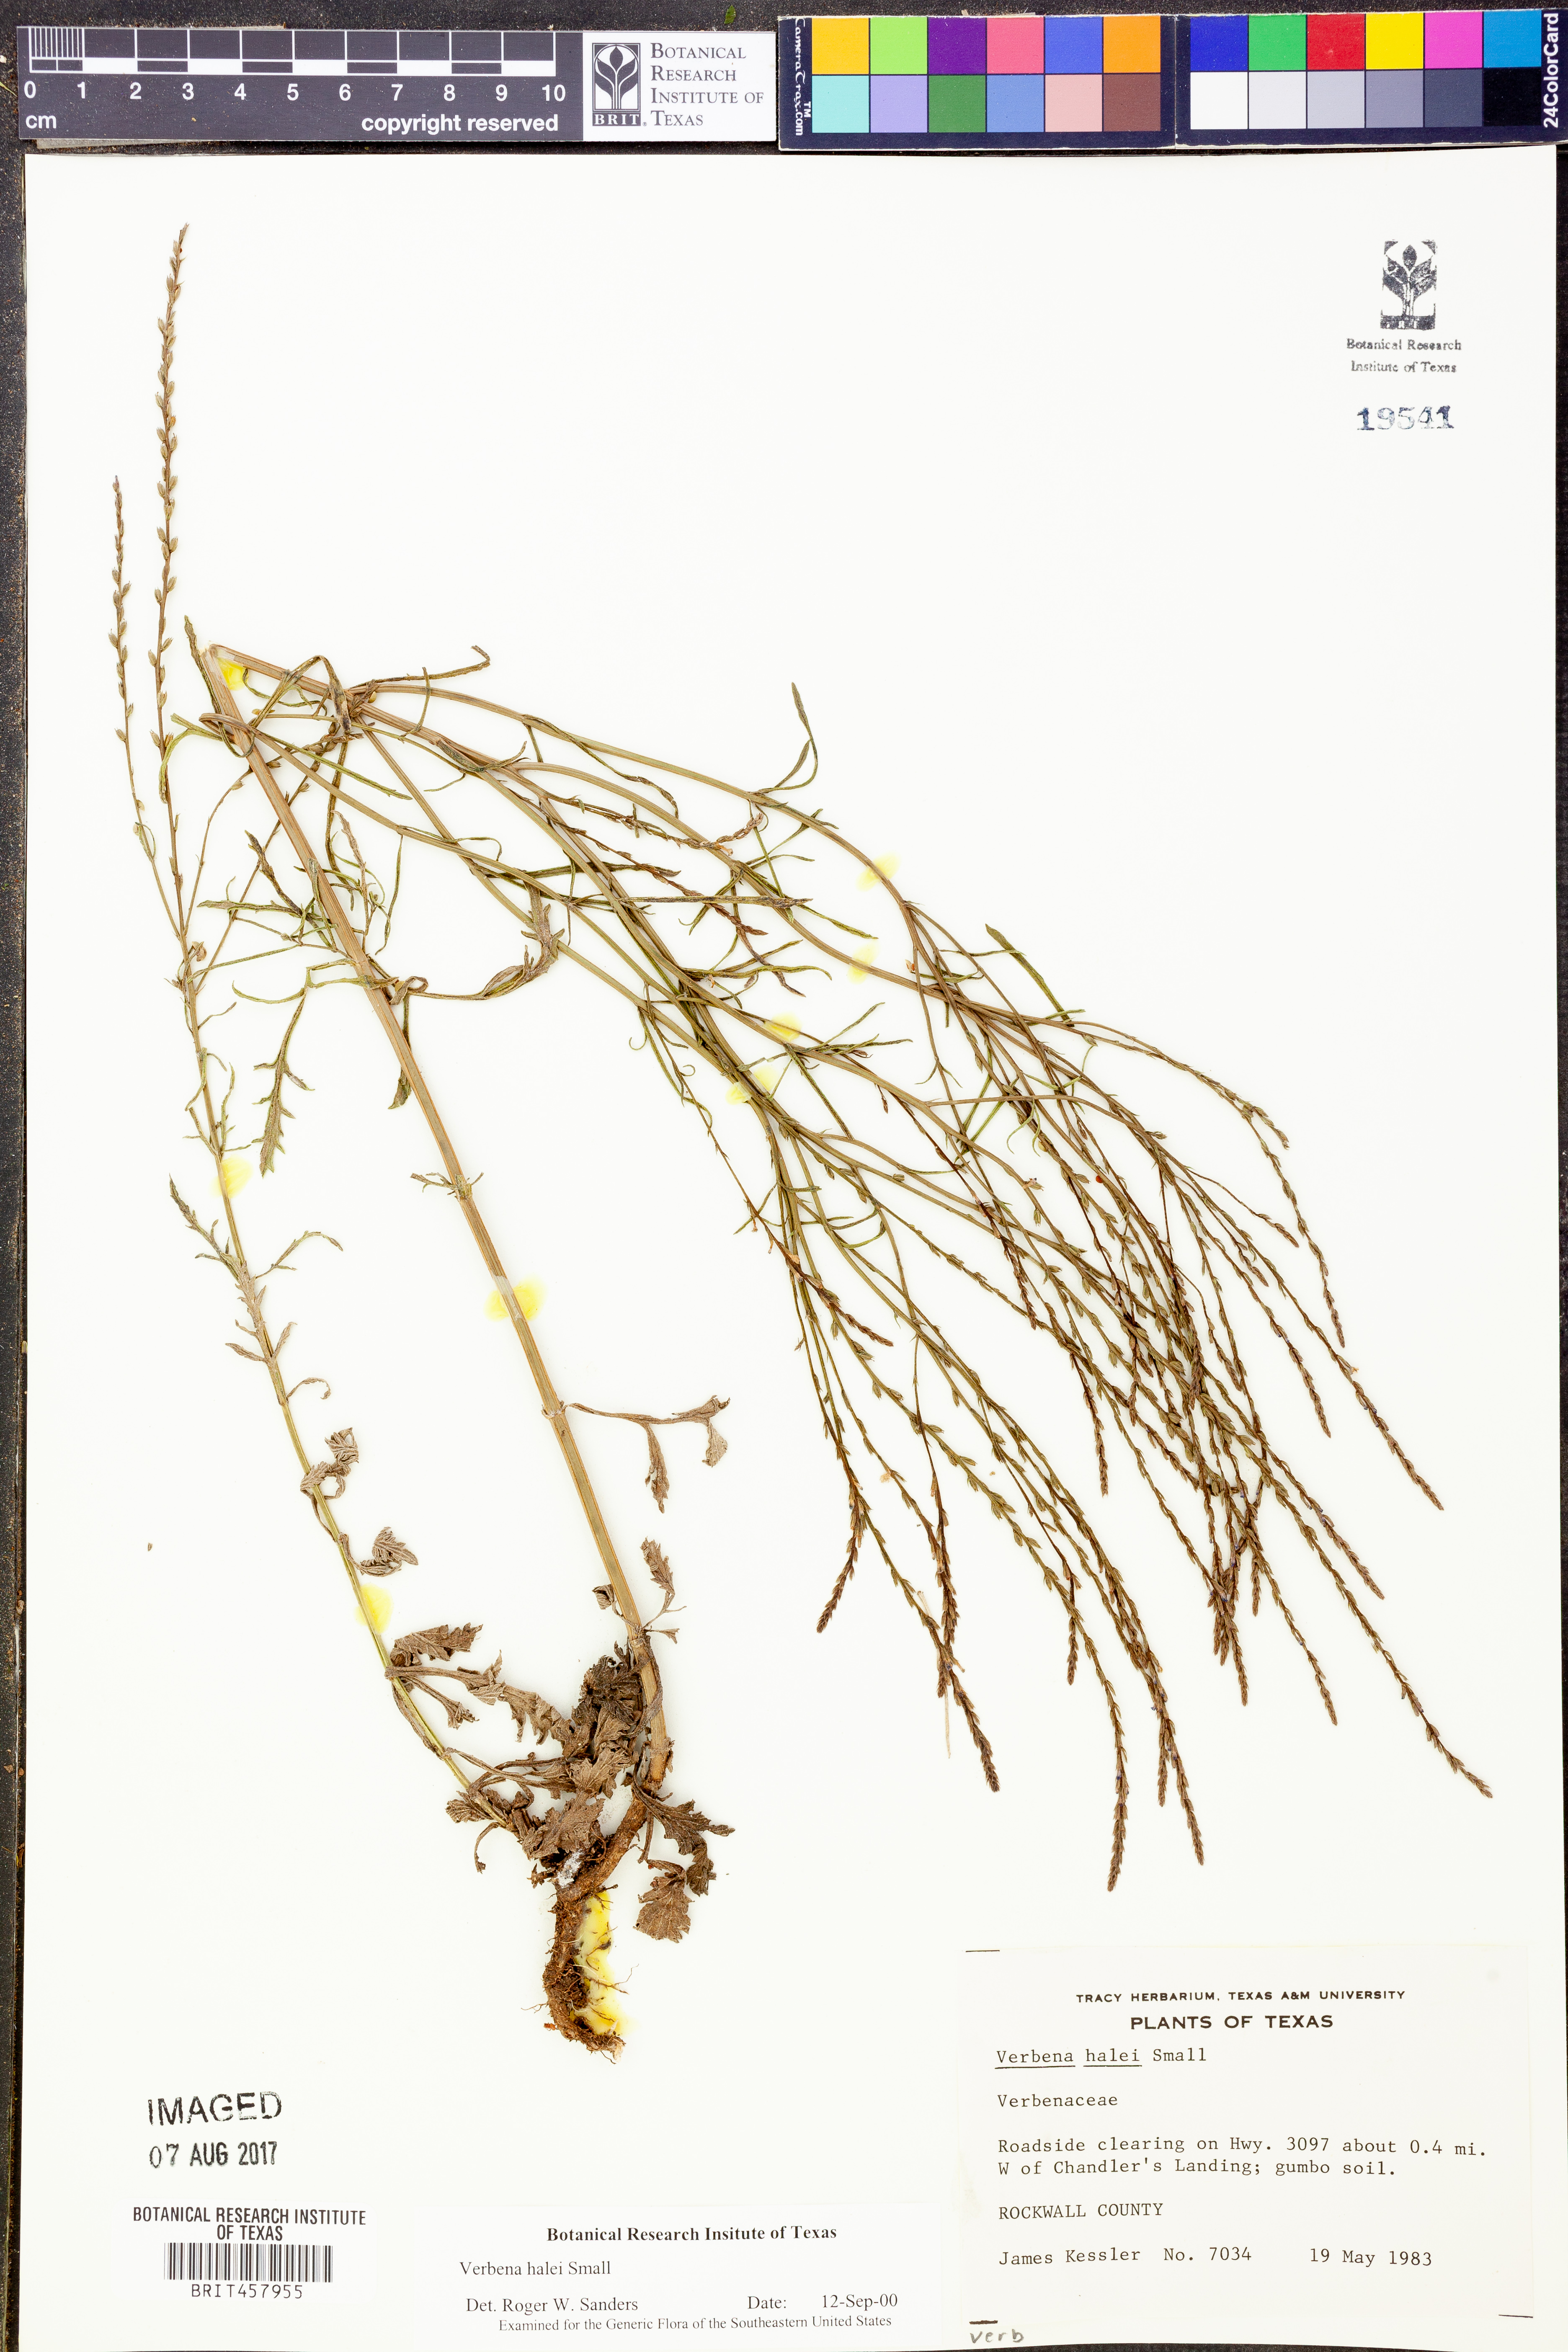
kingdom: Plantae
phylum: Tracheophyta
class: Magnoliopsida
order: Lamiales
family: Verbenaceae
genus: Verbena
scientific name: Verbena halei
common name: Texas vervain
